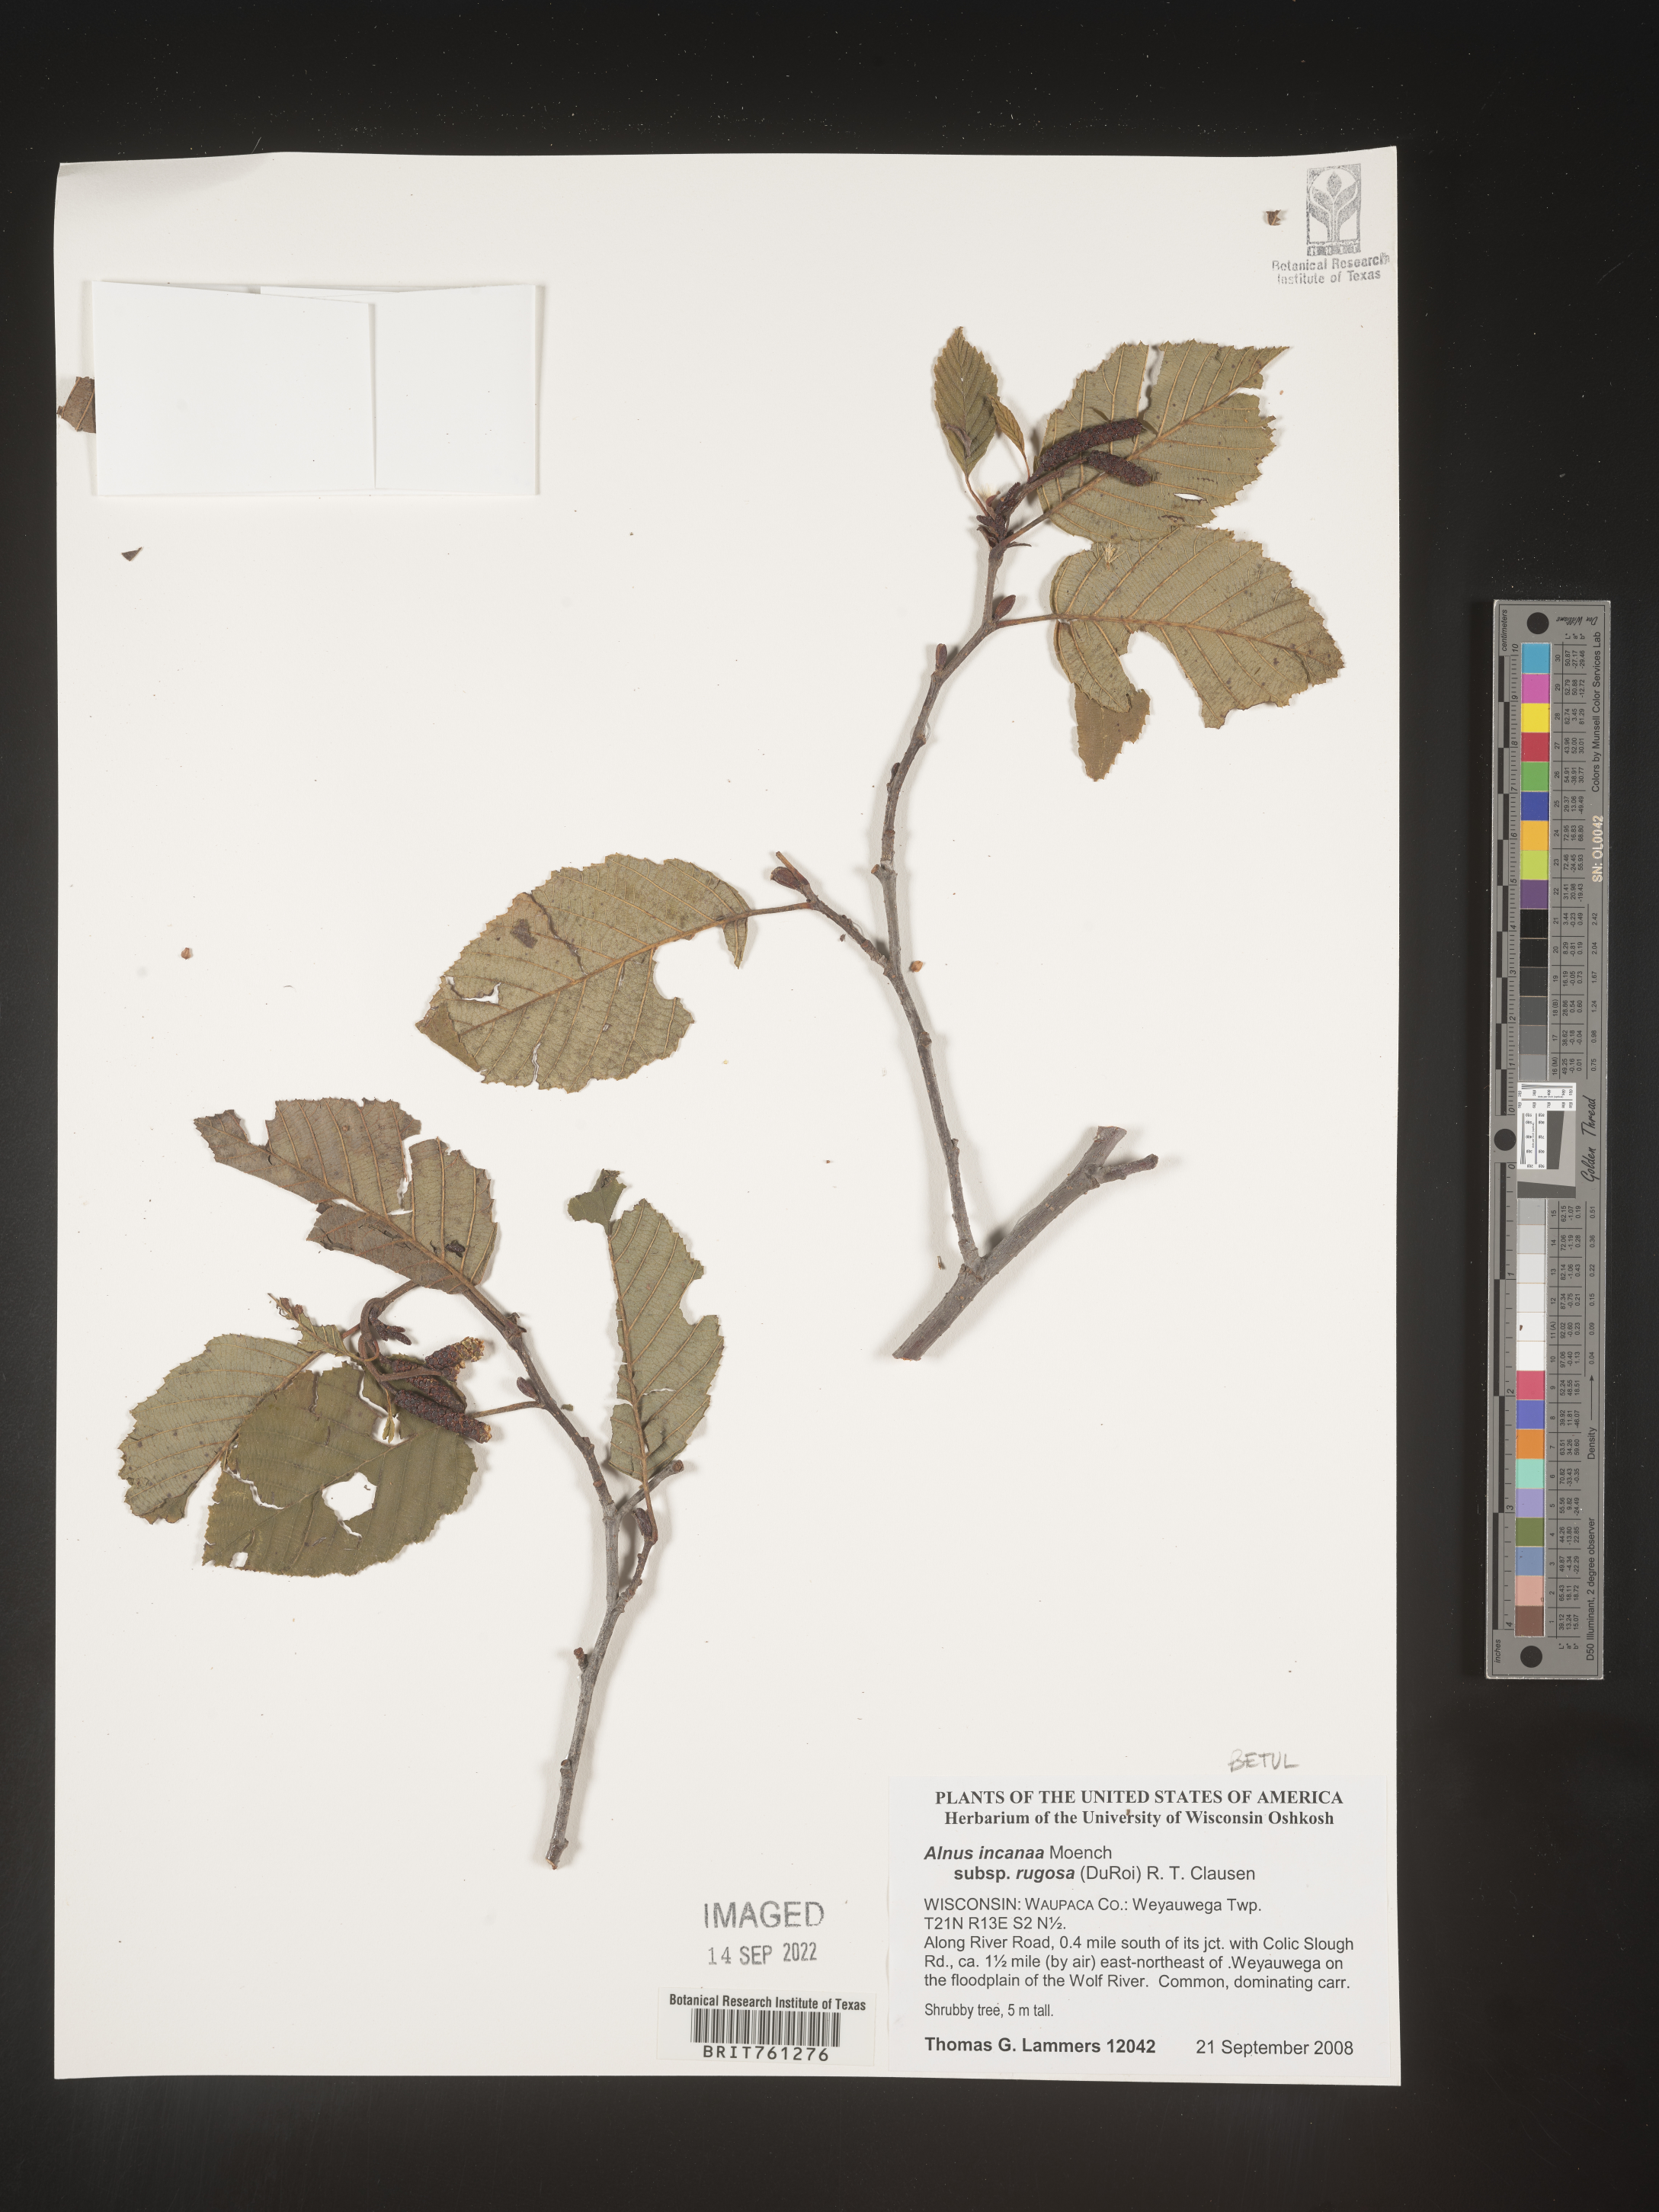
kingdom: Plantae
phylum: Tracheophyta
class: Magnoliopsida
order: Fagales
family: Betulaceae
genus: Alnus
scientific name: Alnus incana
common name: Grey alder
